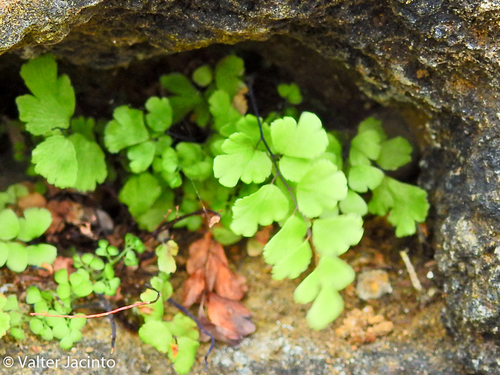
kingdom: Plantae
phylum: Tracheophyta
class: Polypodiopsida
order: Polypodiales
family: Pteridaceae
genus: Adiantum
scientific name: Adiantum capillus-veneris
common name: Maidenhair fern
